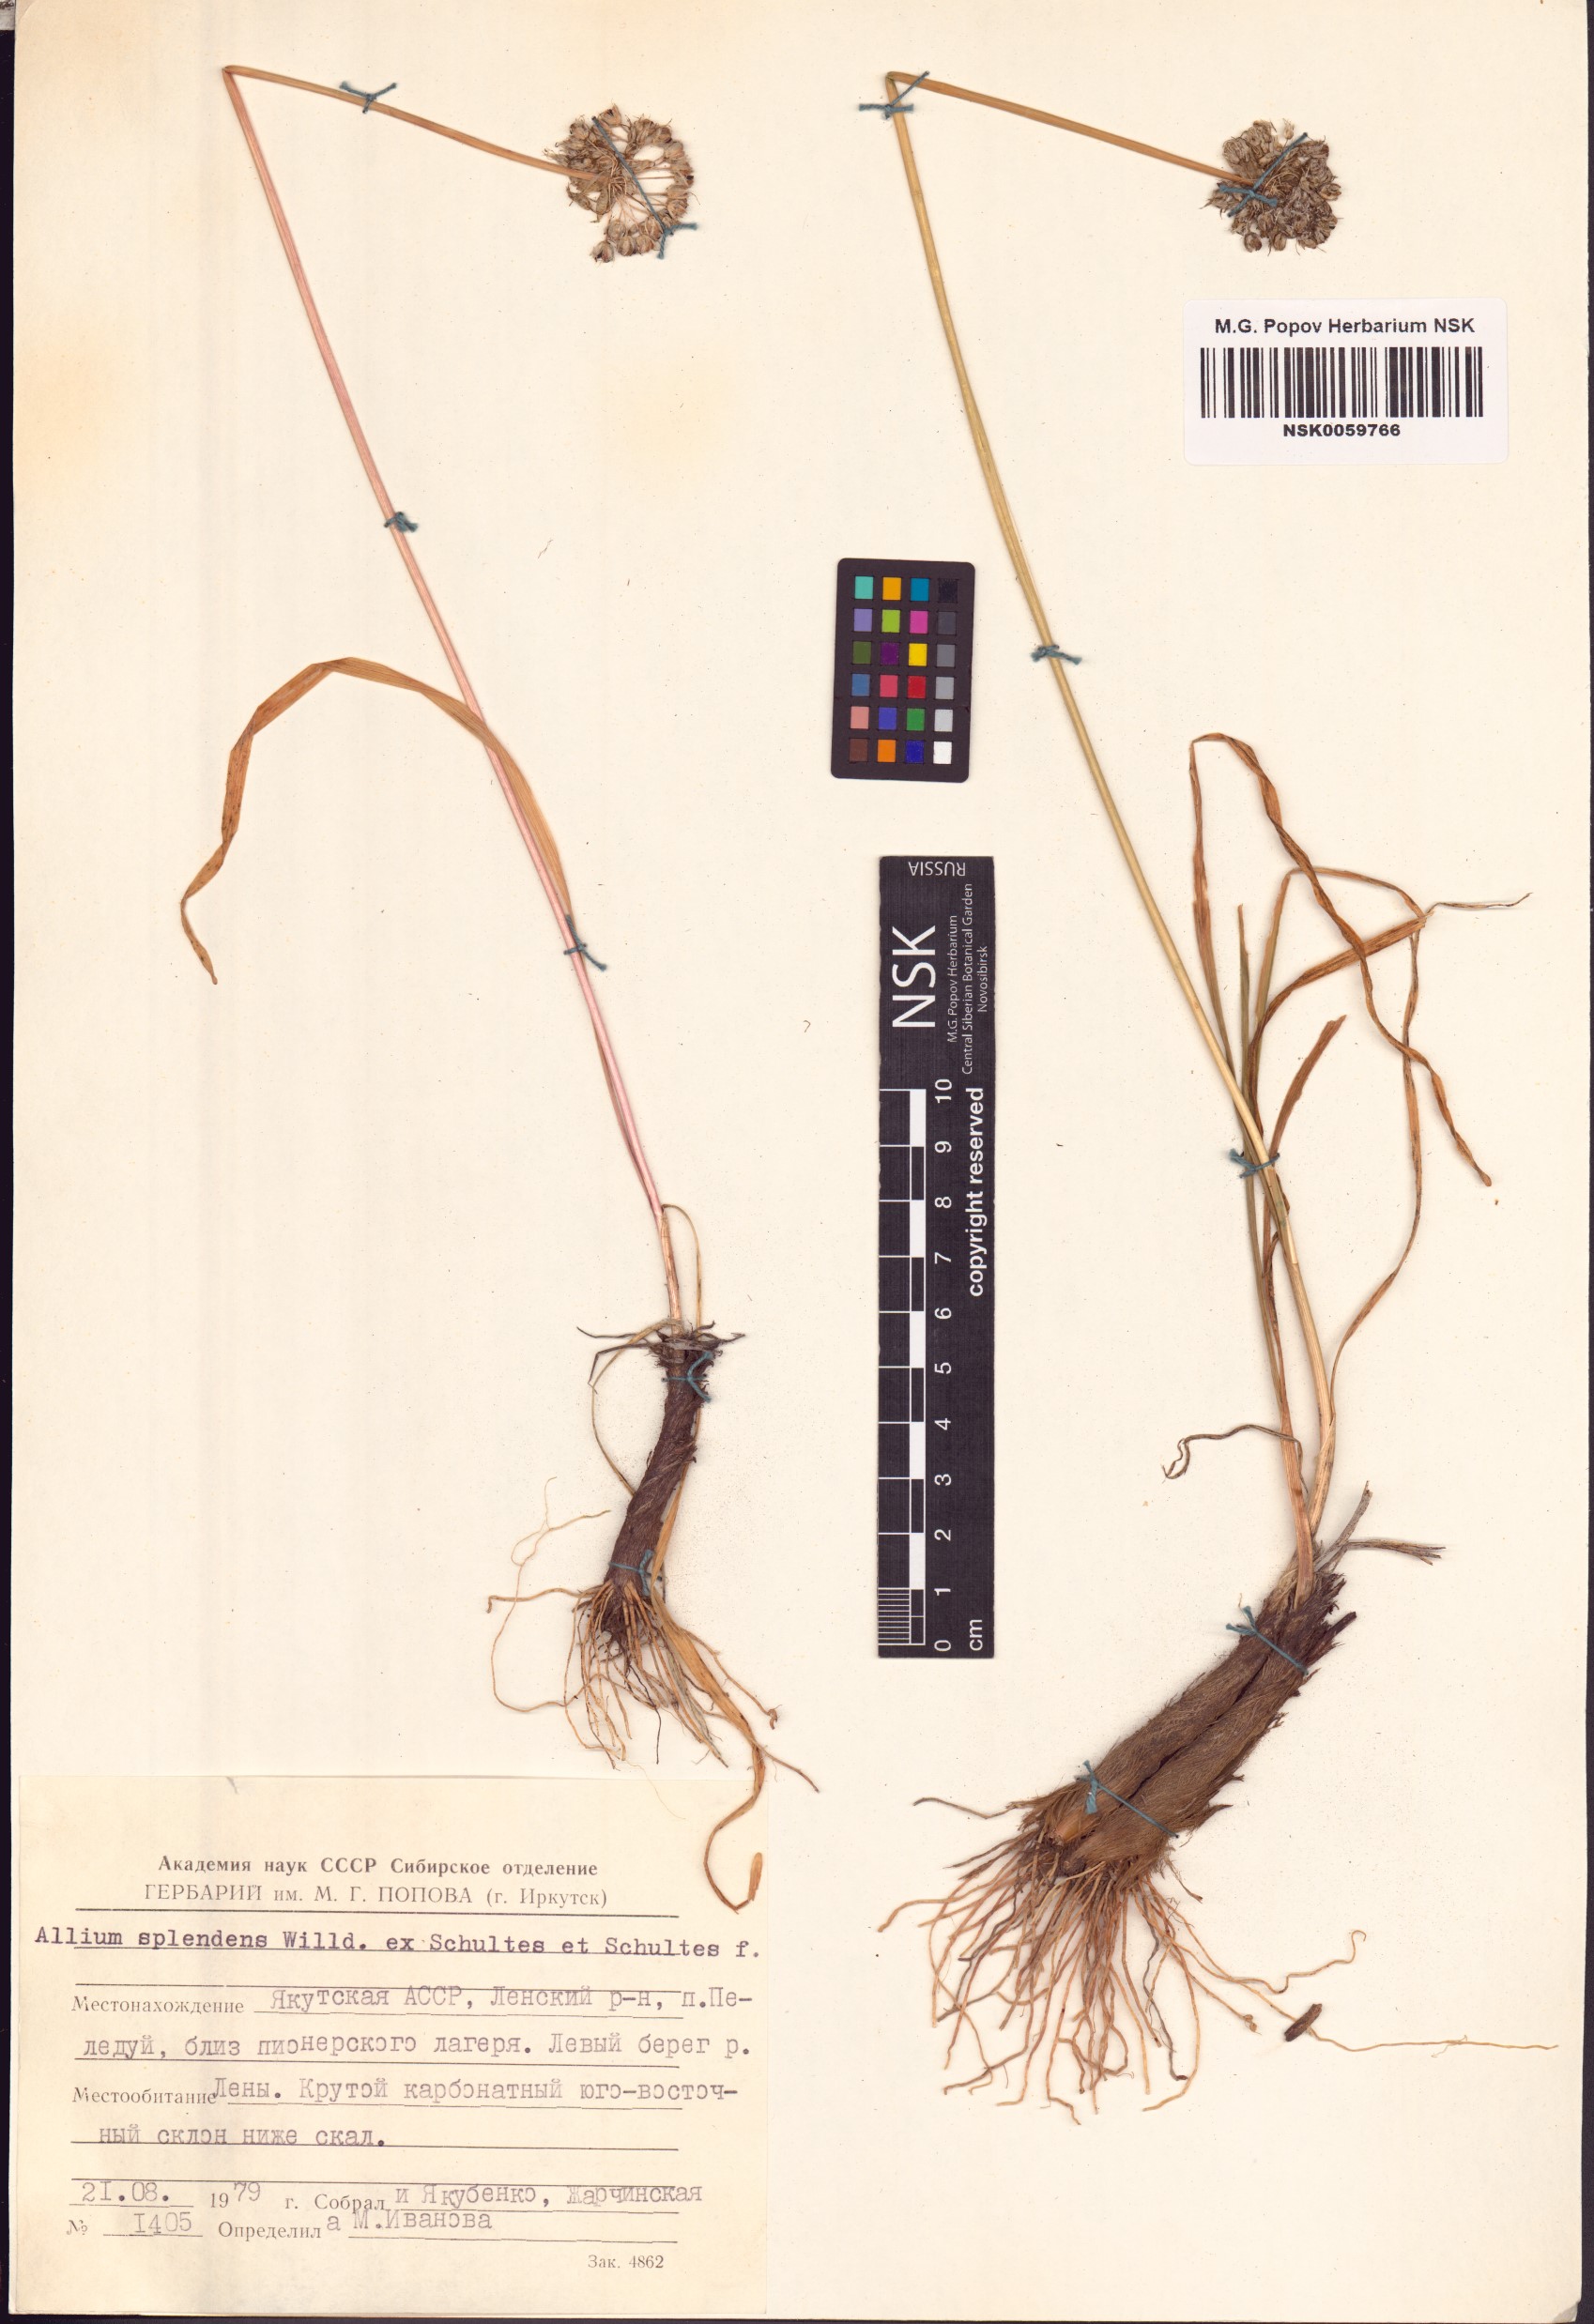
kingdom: Plantae
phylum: Tracheophyta
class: Liliopsida
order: Asparagales
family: Amaryllidaceae
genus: Allium
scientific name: Allium splendens
